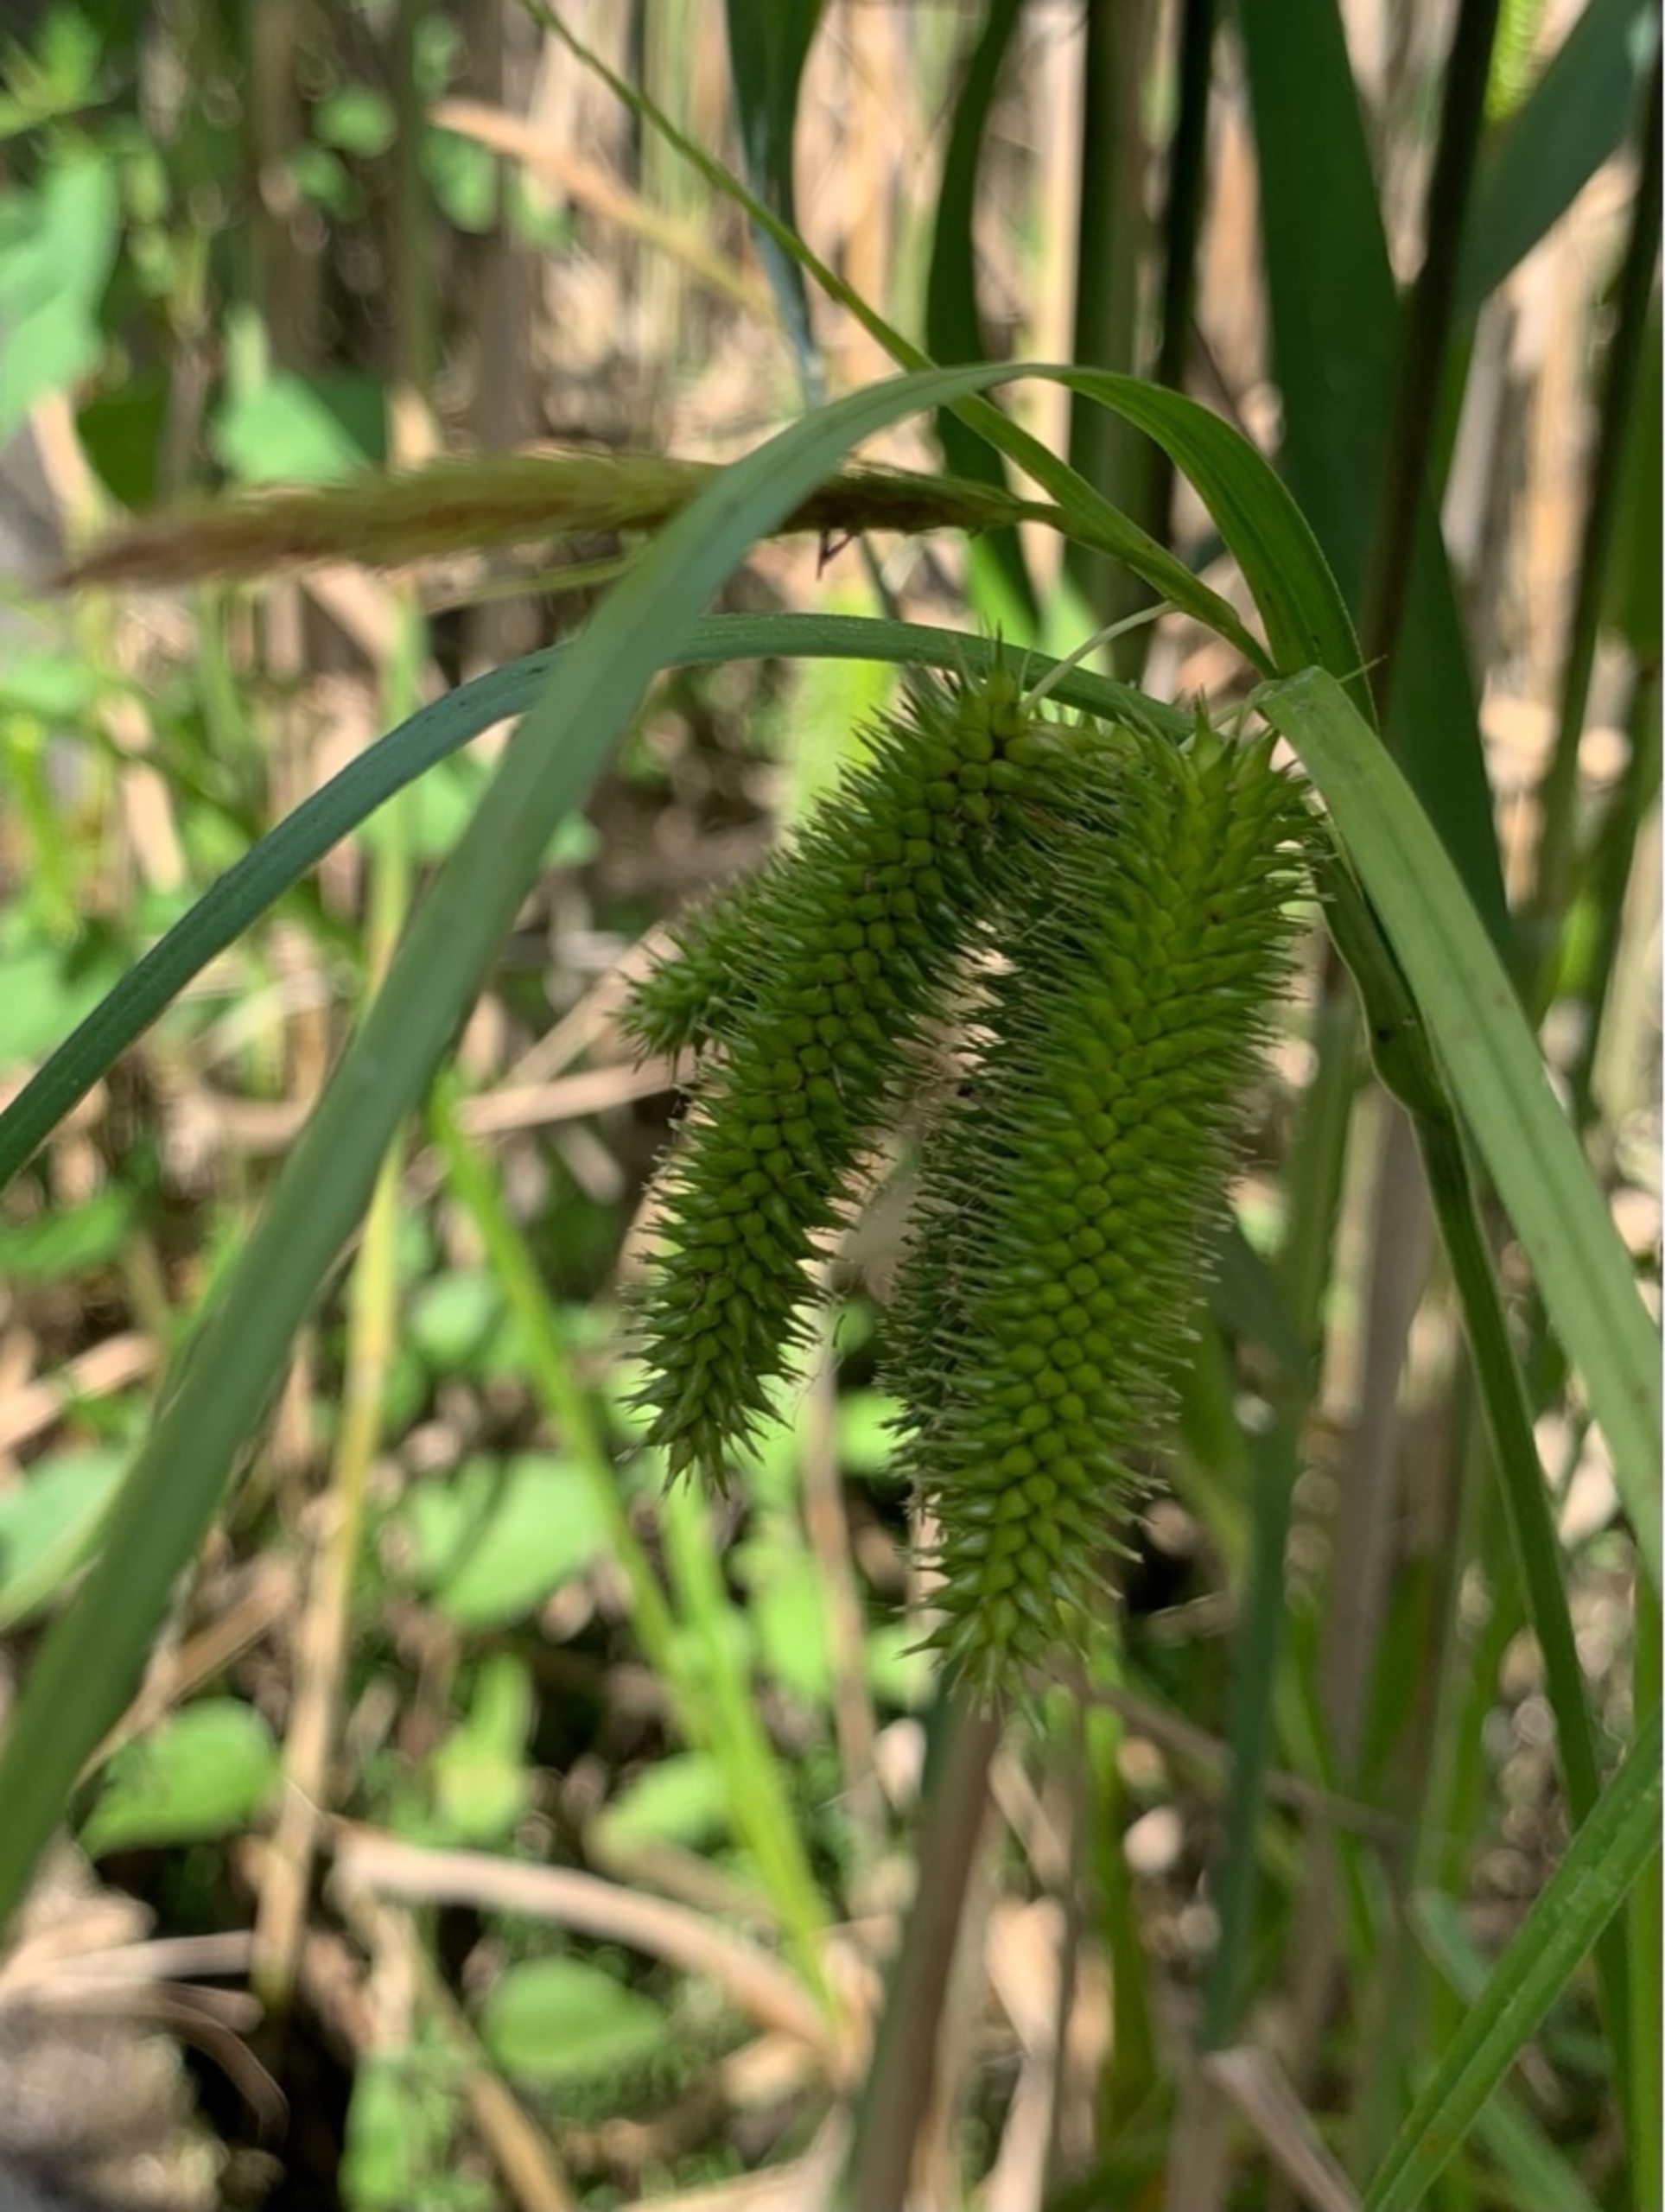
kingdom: Plantae
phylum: Tracheophyta
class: Liliopsida
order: Poales
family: Cyperaceae
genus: Carex
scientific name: Carex pseudocyperus
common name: Knippe-star
